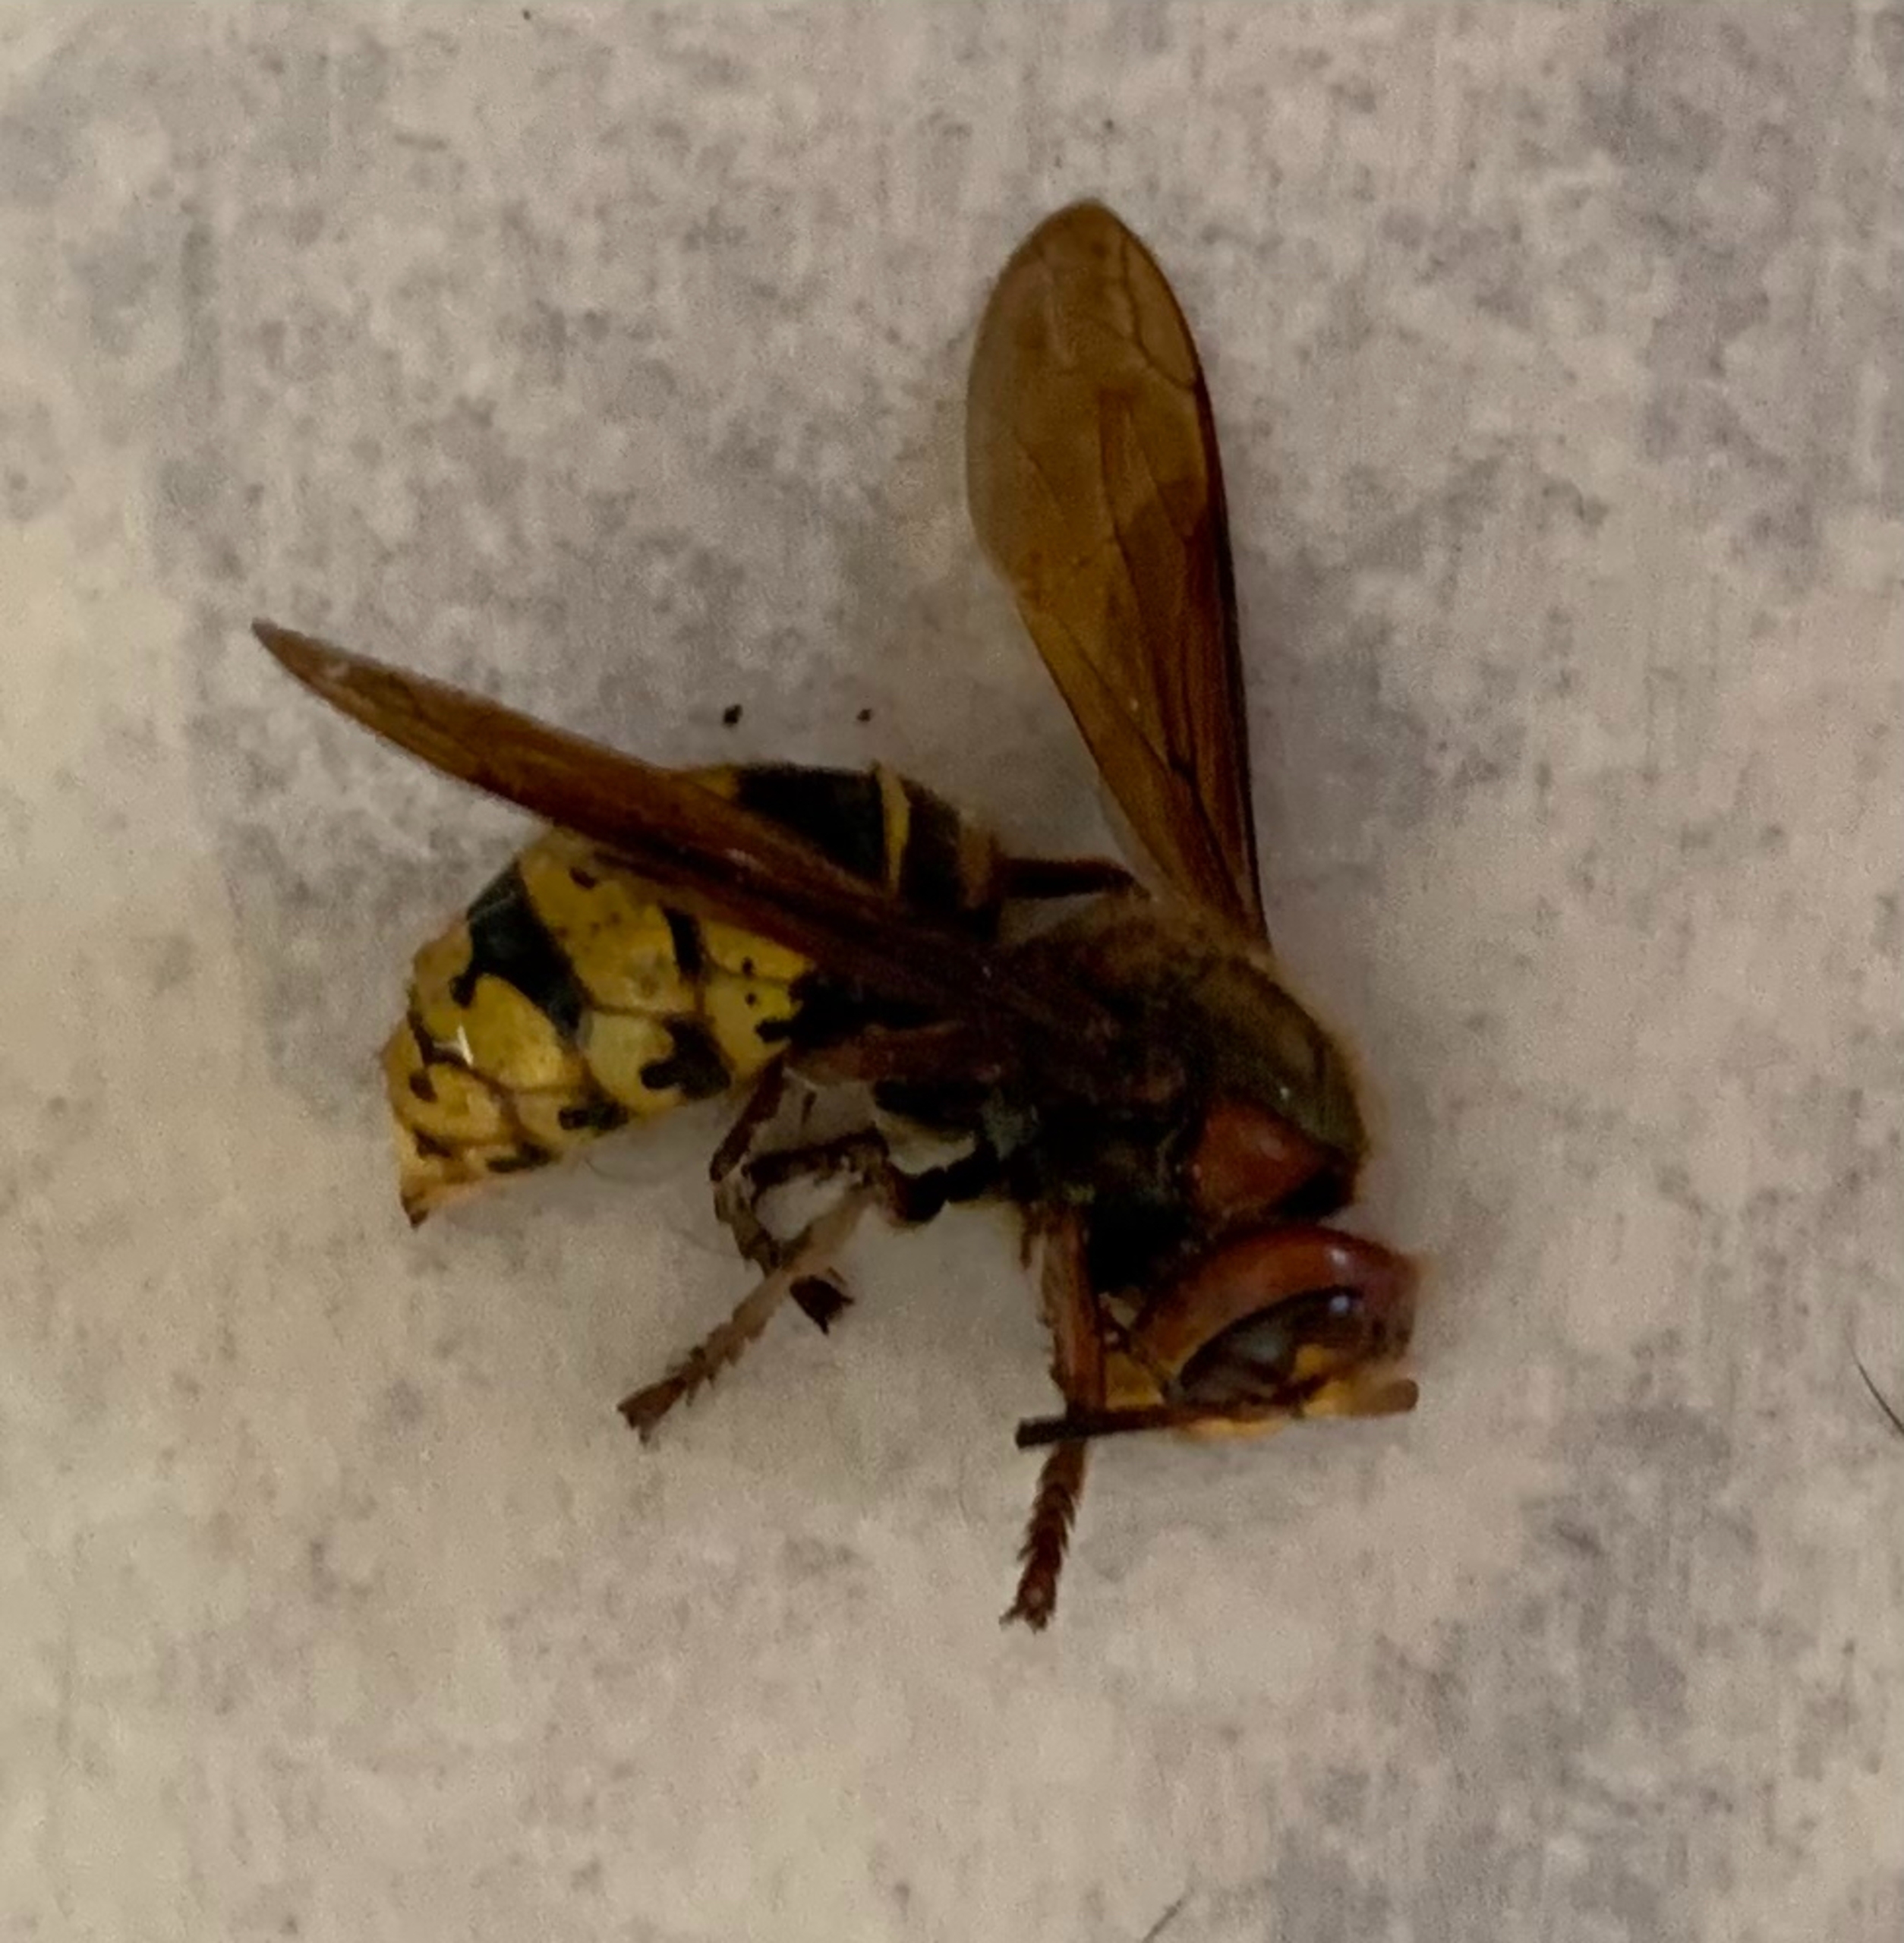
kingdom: Animalia
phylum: Arthropoda
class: Insecta
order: Hymenoptera
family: Vespidae
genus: Vespa
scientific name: Vespa crabro
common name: Stor gedehams
